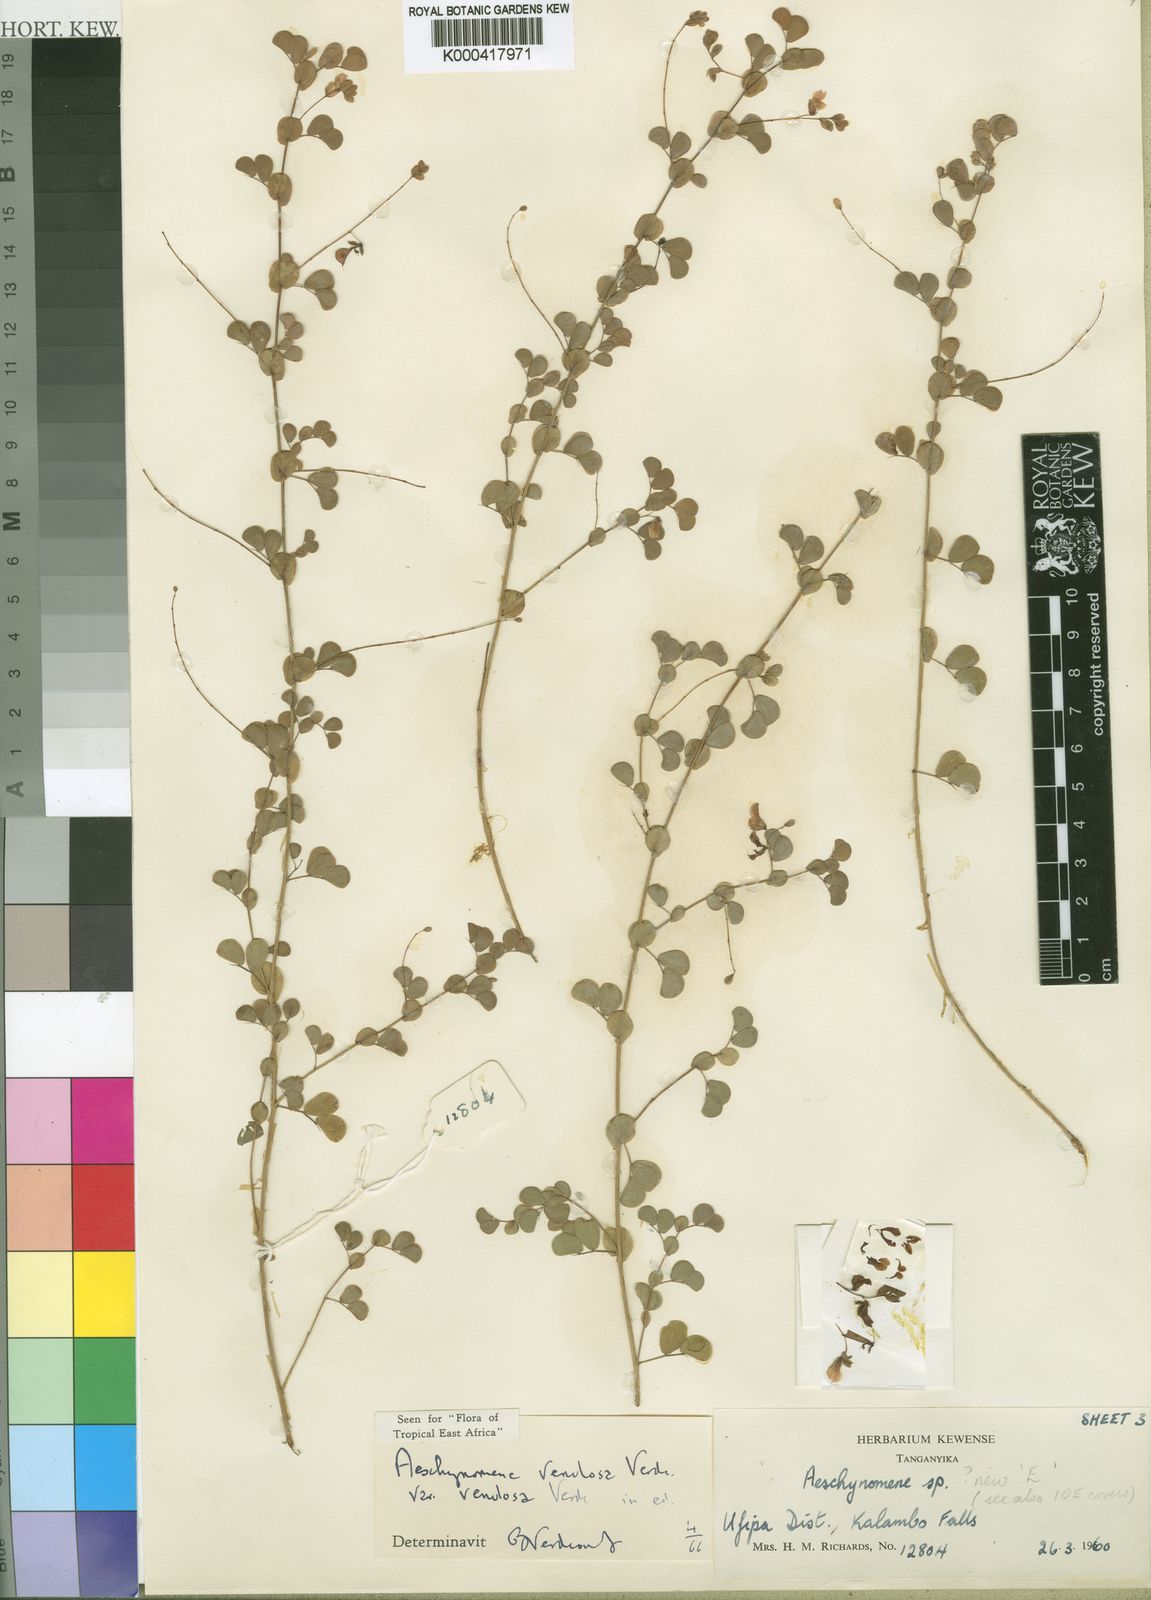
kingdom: Plantae
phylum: Tracheophyta
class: Magnoliopsida
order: Fabales
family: Fabaceae
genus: Aeschynomene
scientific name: Aeschynomene venulosa
